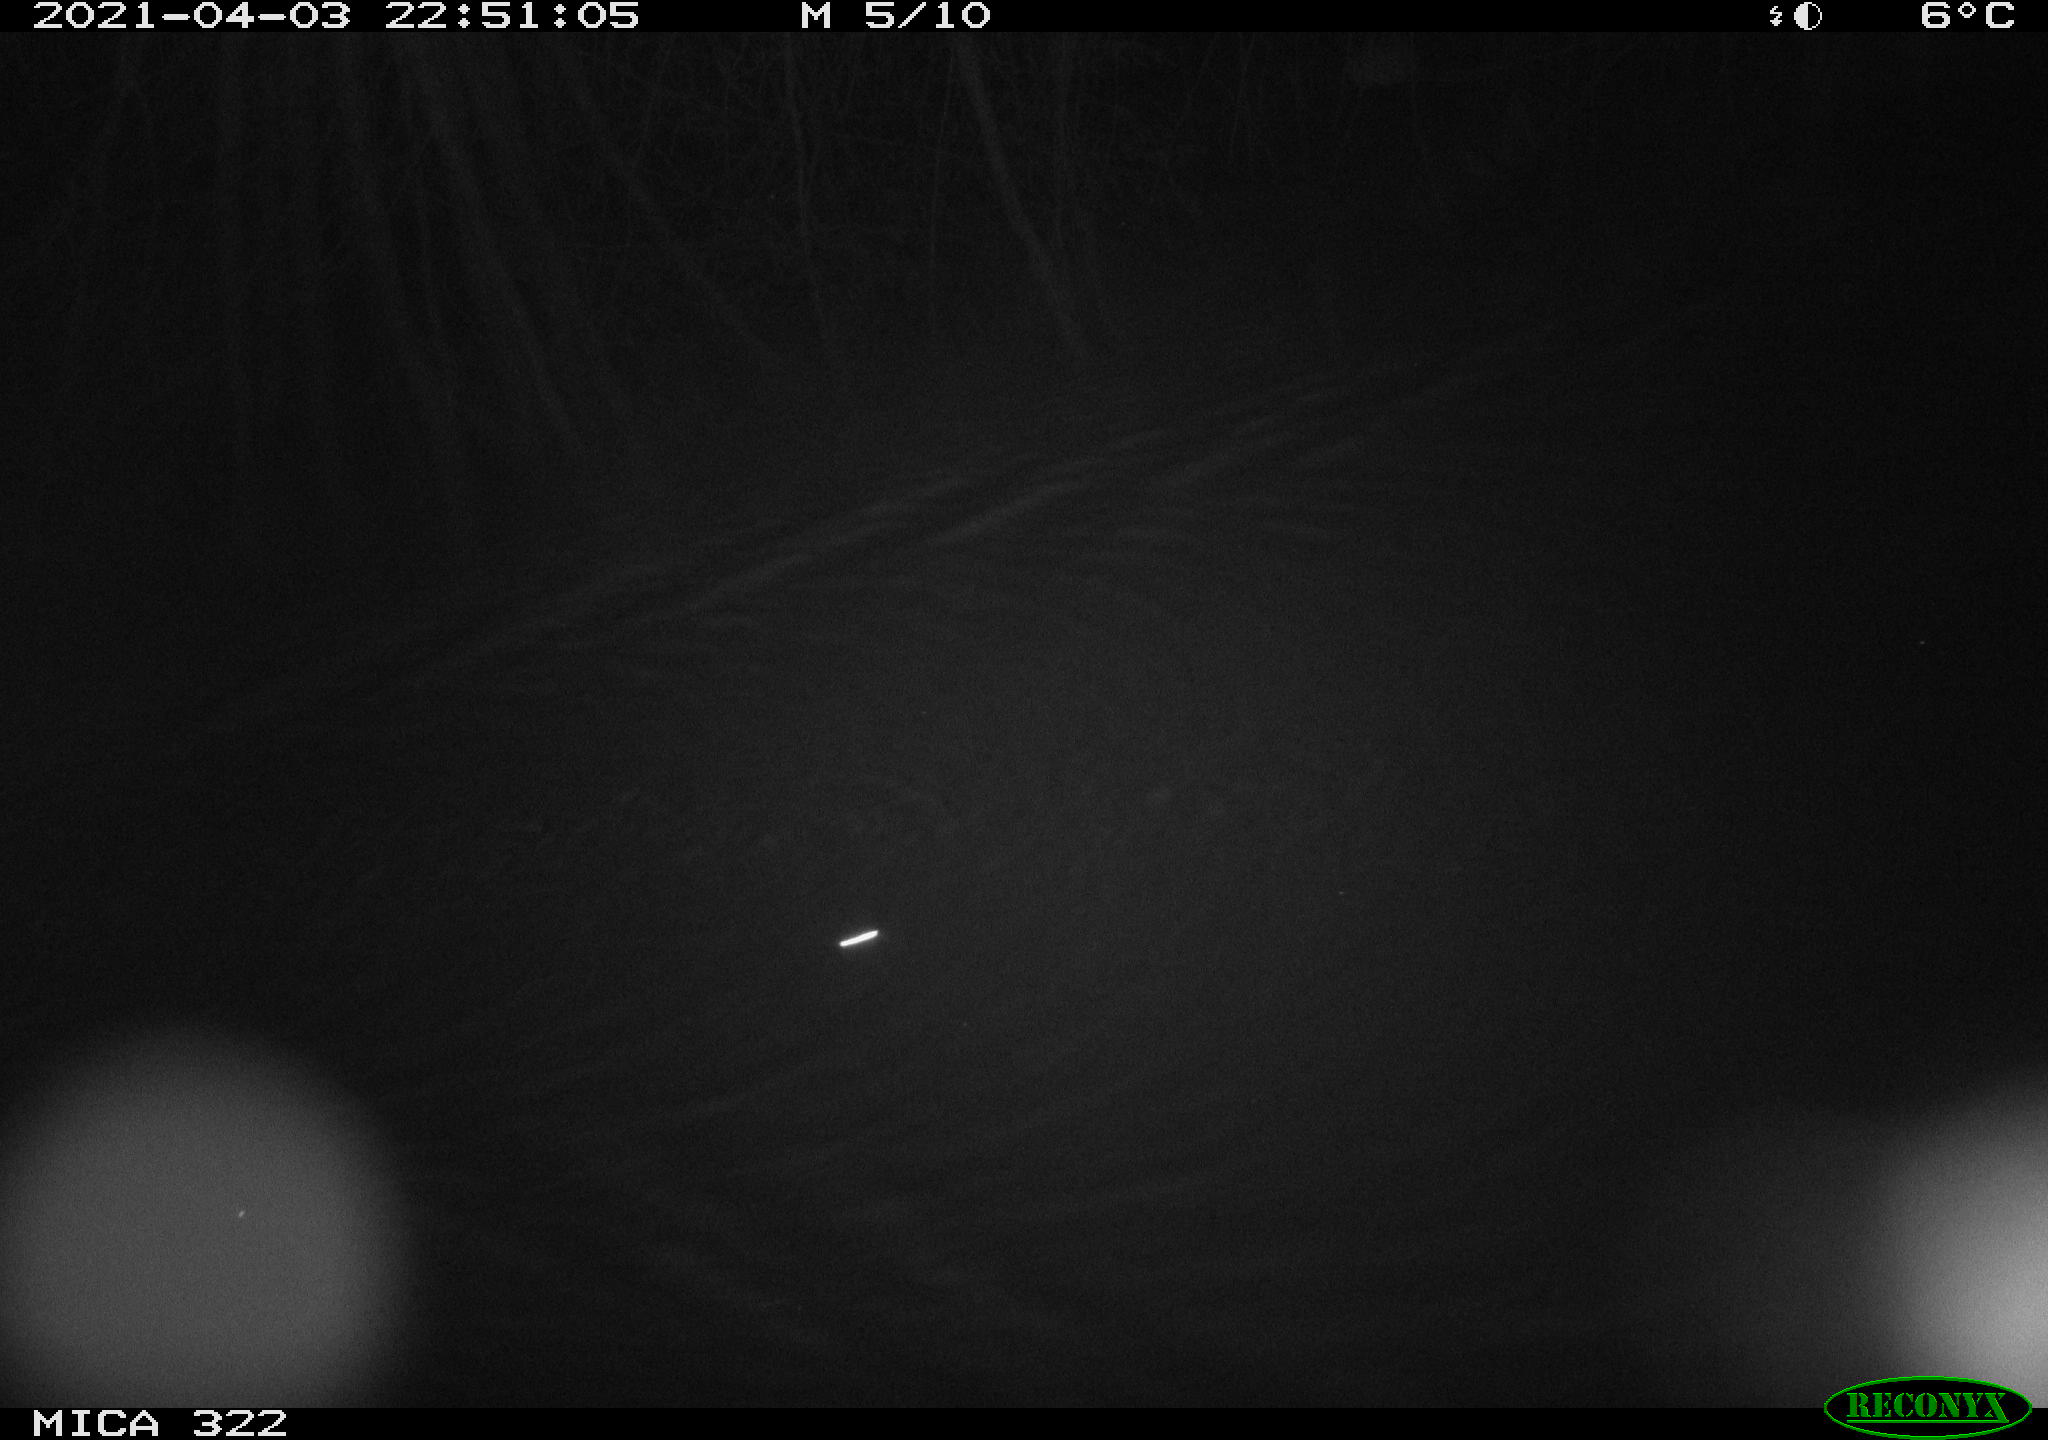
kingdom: Animalia
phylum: Chordata
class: Mammalia
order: Rodentia
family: Cricetidae
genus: Ondatra
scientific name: Ondatra zibethicus
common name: Muskrat
